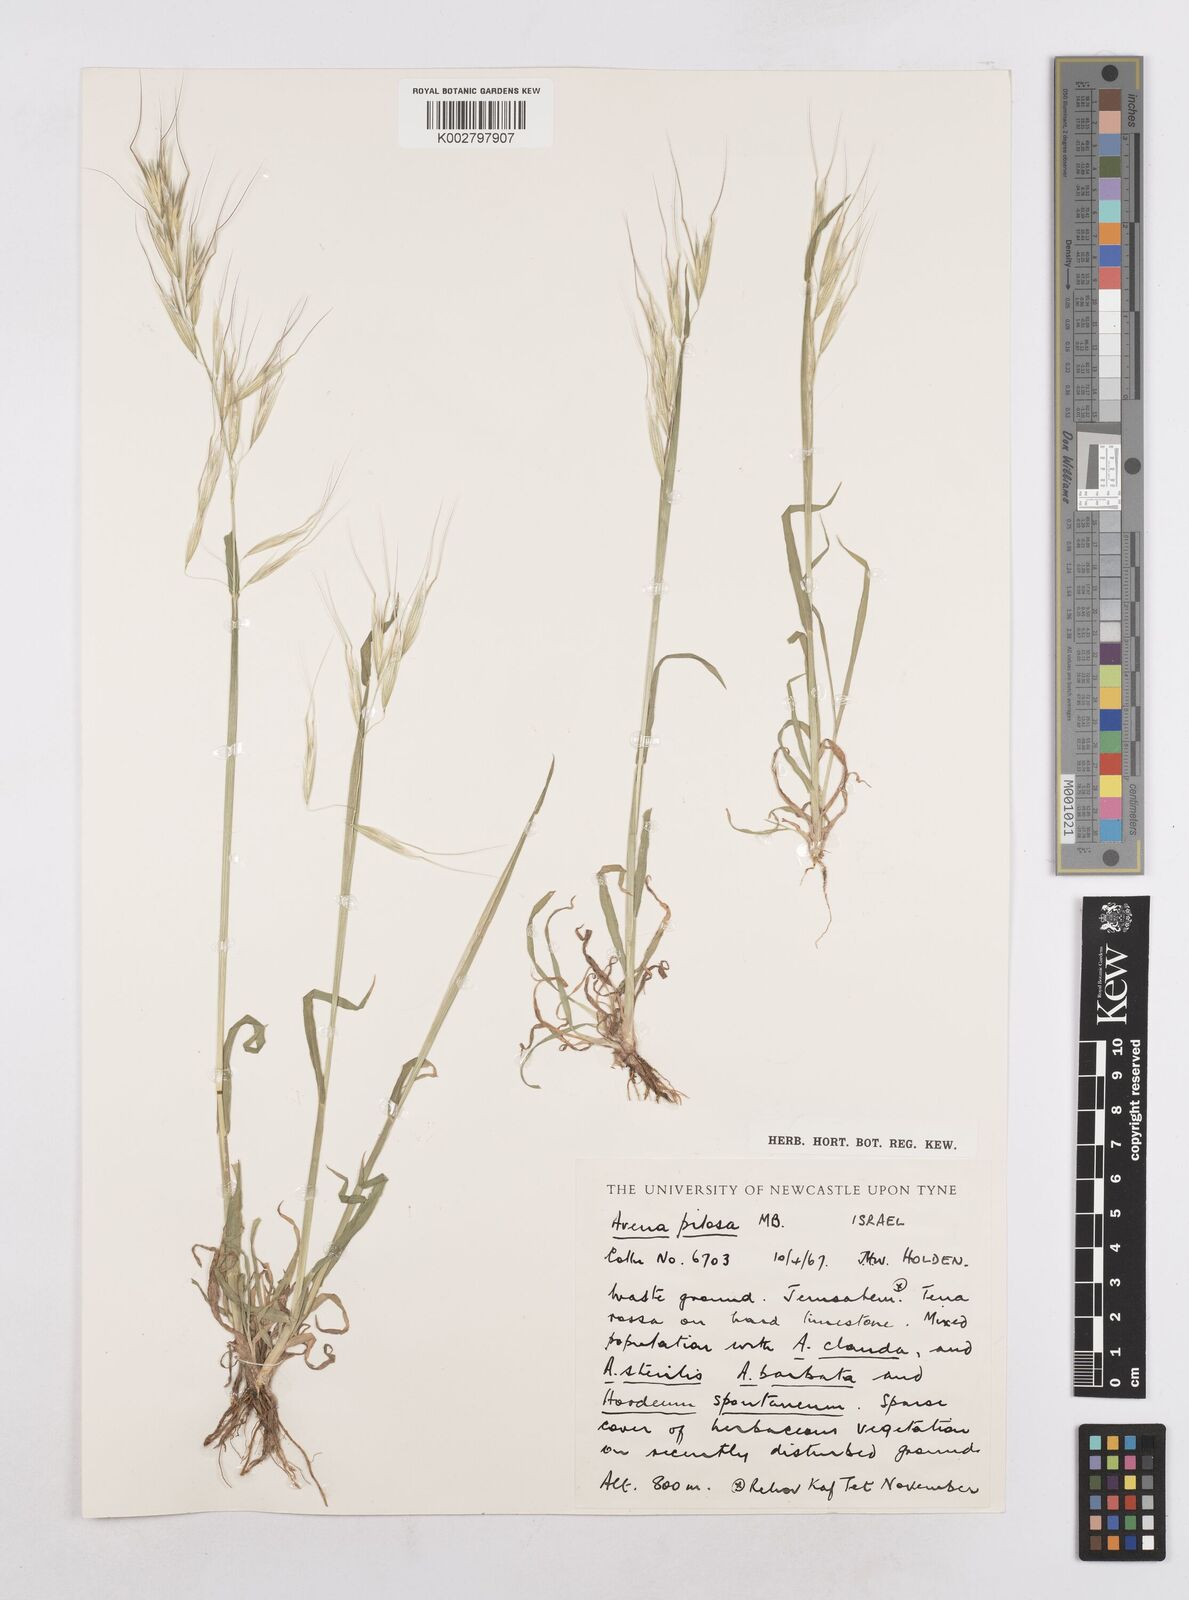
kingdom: Plantae
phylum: Tracheophyta
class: Liliopsida
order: Poales
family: Poaceae
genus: Avena
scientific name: Avena
